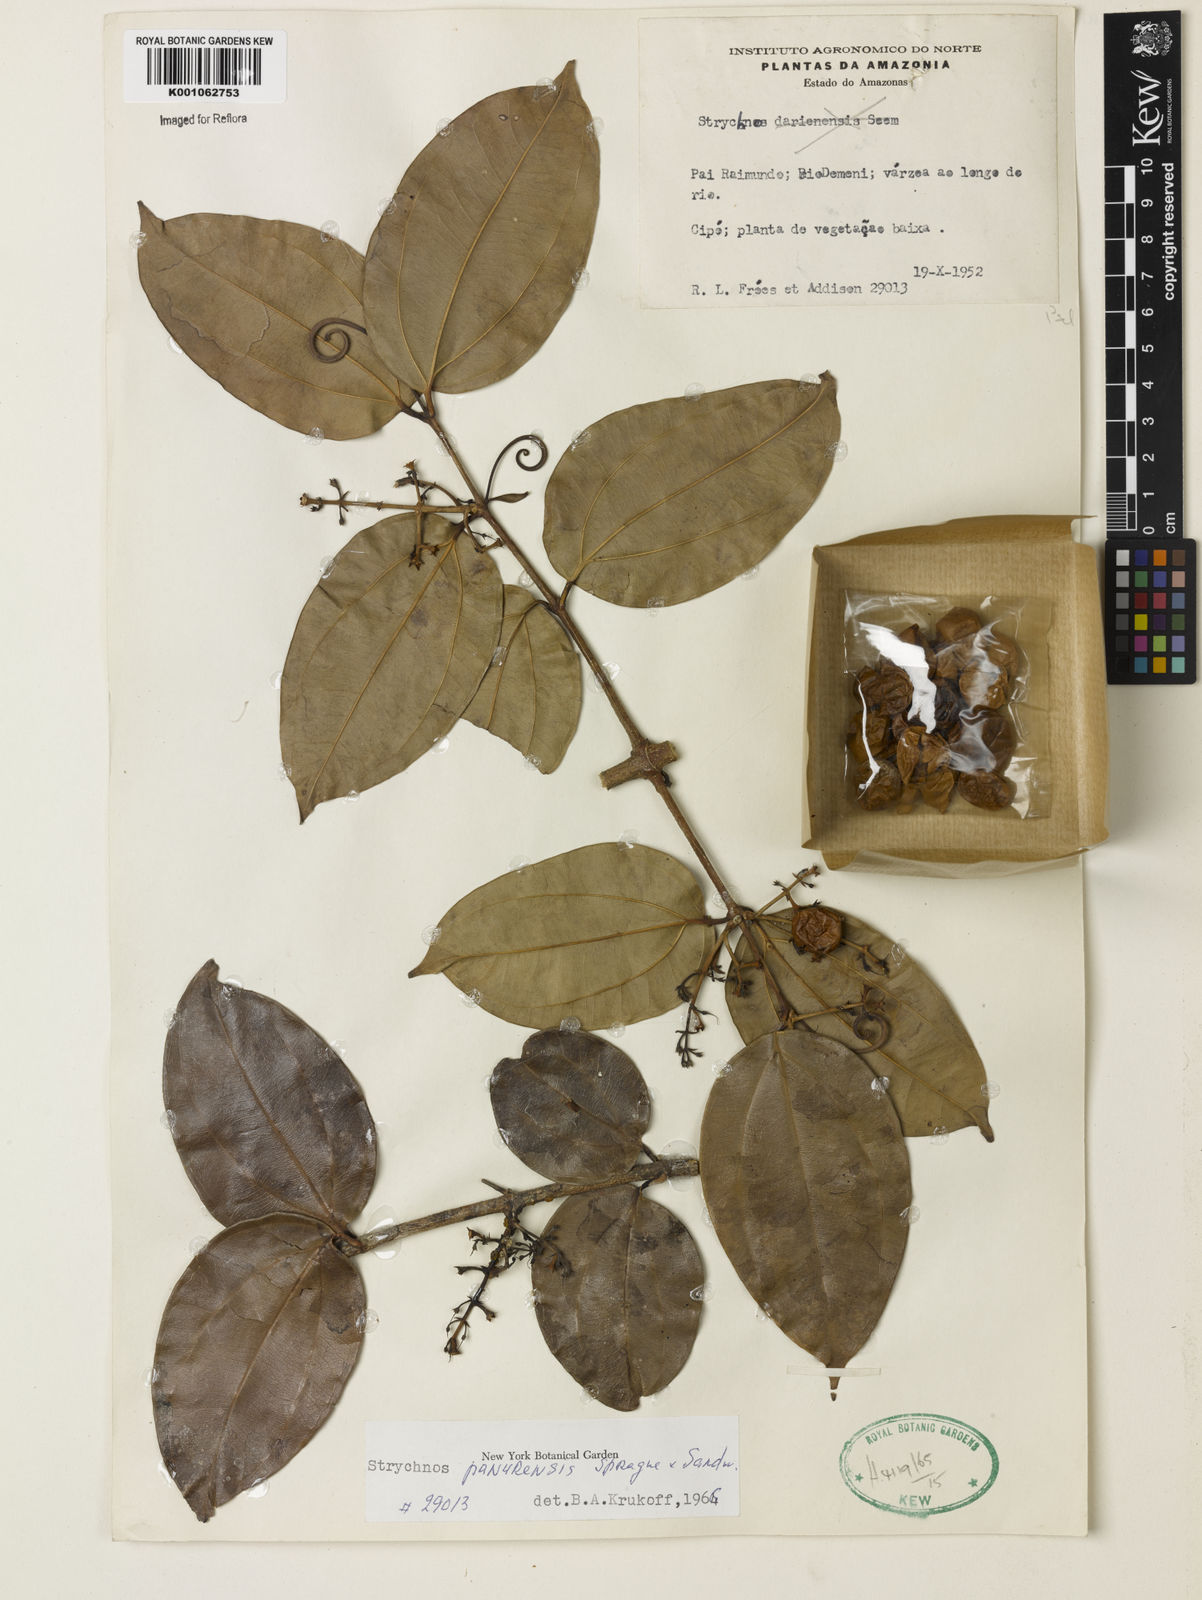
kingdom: Plantae
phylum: Tracheophyta
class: Magnoliopsida
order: Gentianales
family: Loganiaceae
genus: Strychnos
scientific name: Strychnos gubleri
